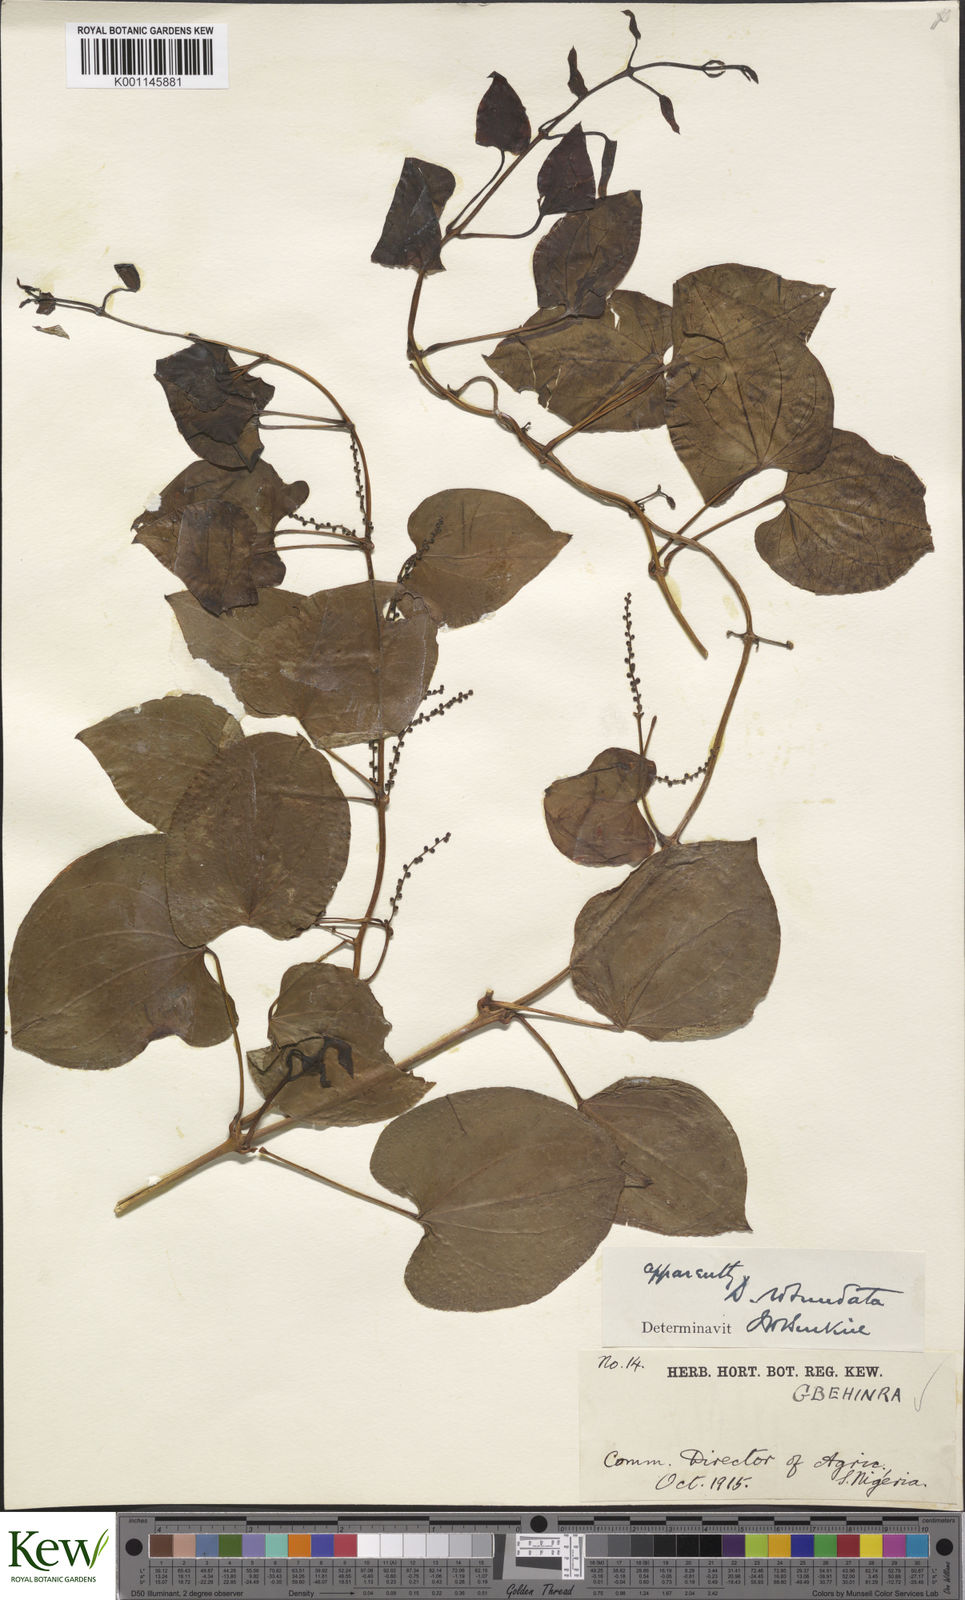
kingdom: Plantae
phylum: Tracheophyta
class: Liliopsida
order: Dioscoreales
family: Dioscoreaceae
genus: Dioscorea
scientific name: Dioscorea cayenensis
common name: Attoto yam
